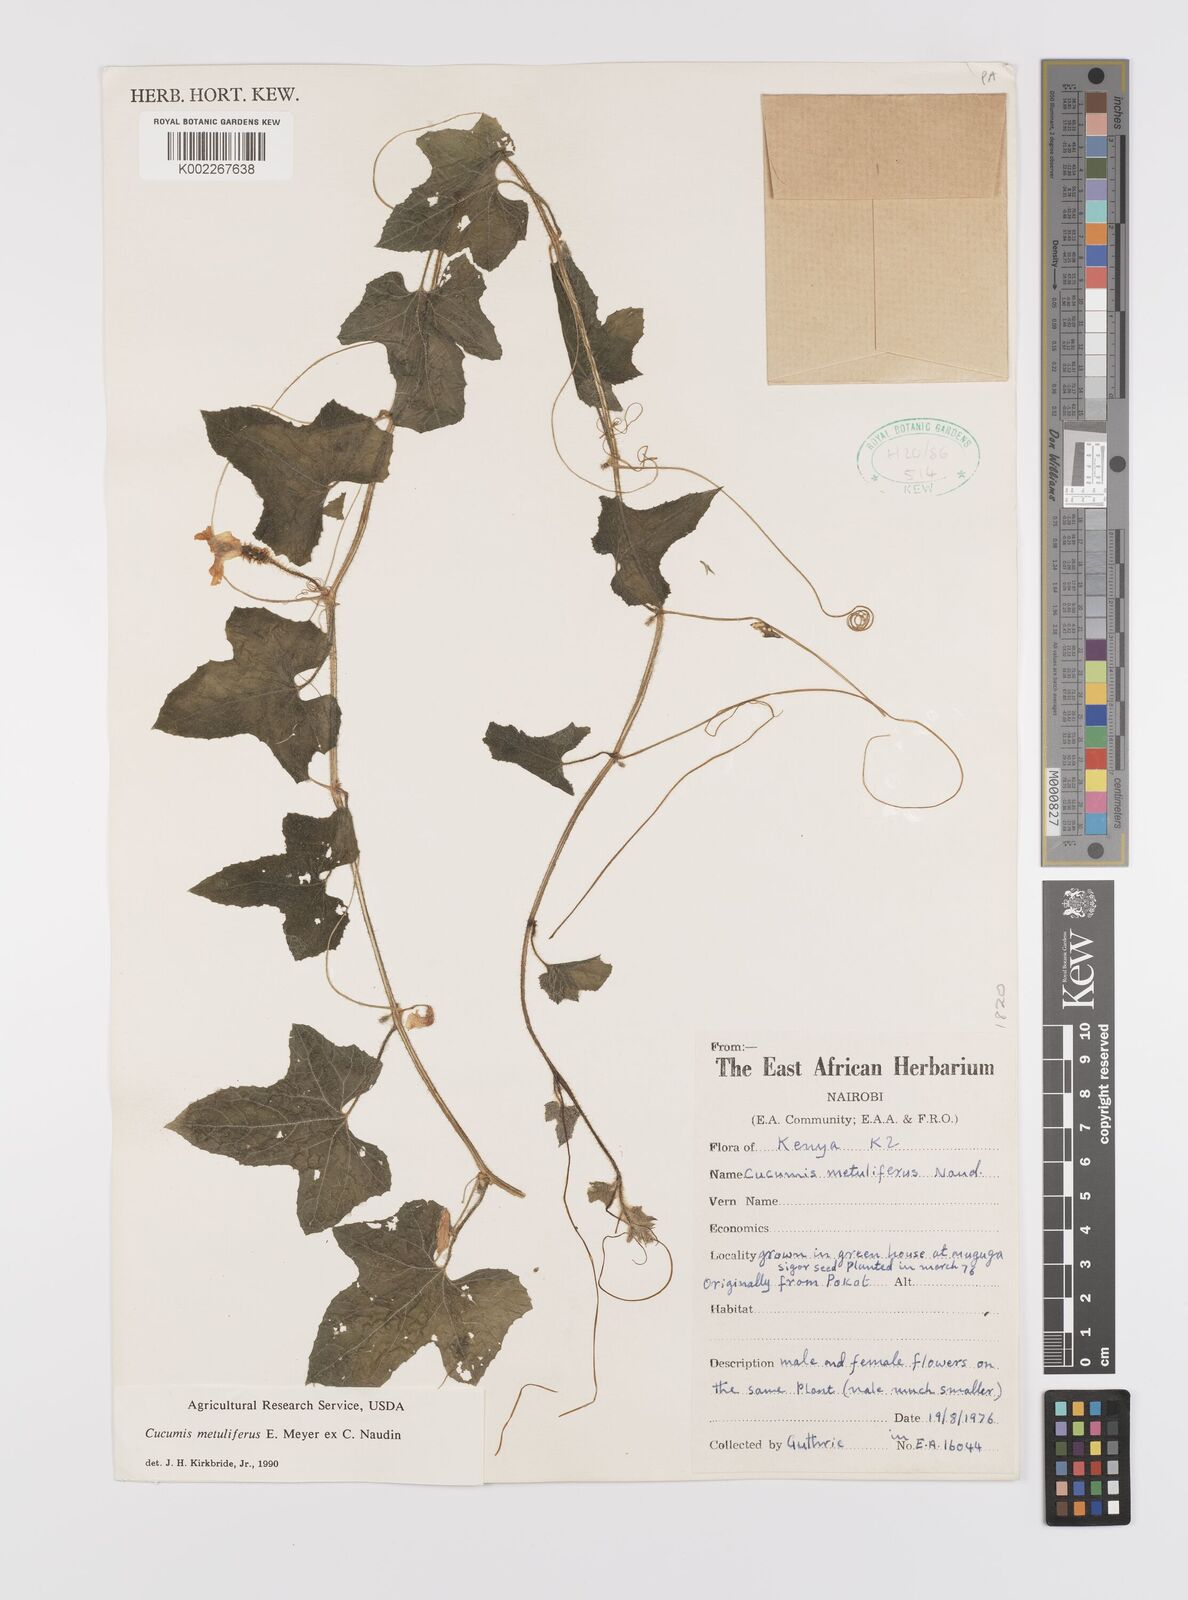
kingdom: Plantae
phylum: Tracheophyta
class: Magnoliopsida
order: Cucurbitales
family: Cucurbitaceae
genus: Cucumis
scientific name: Cucumis metuliferus
